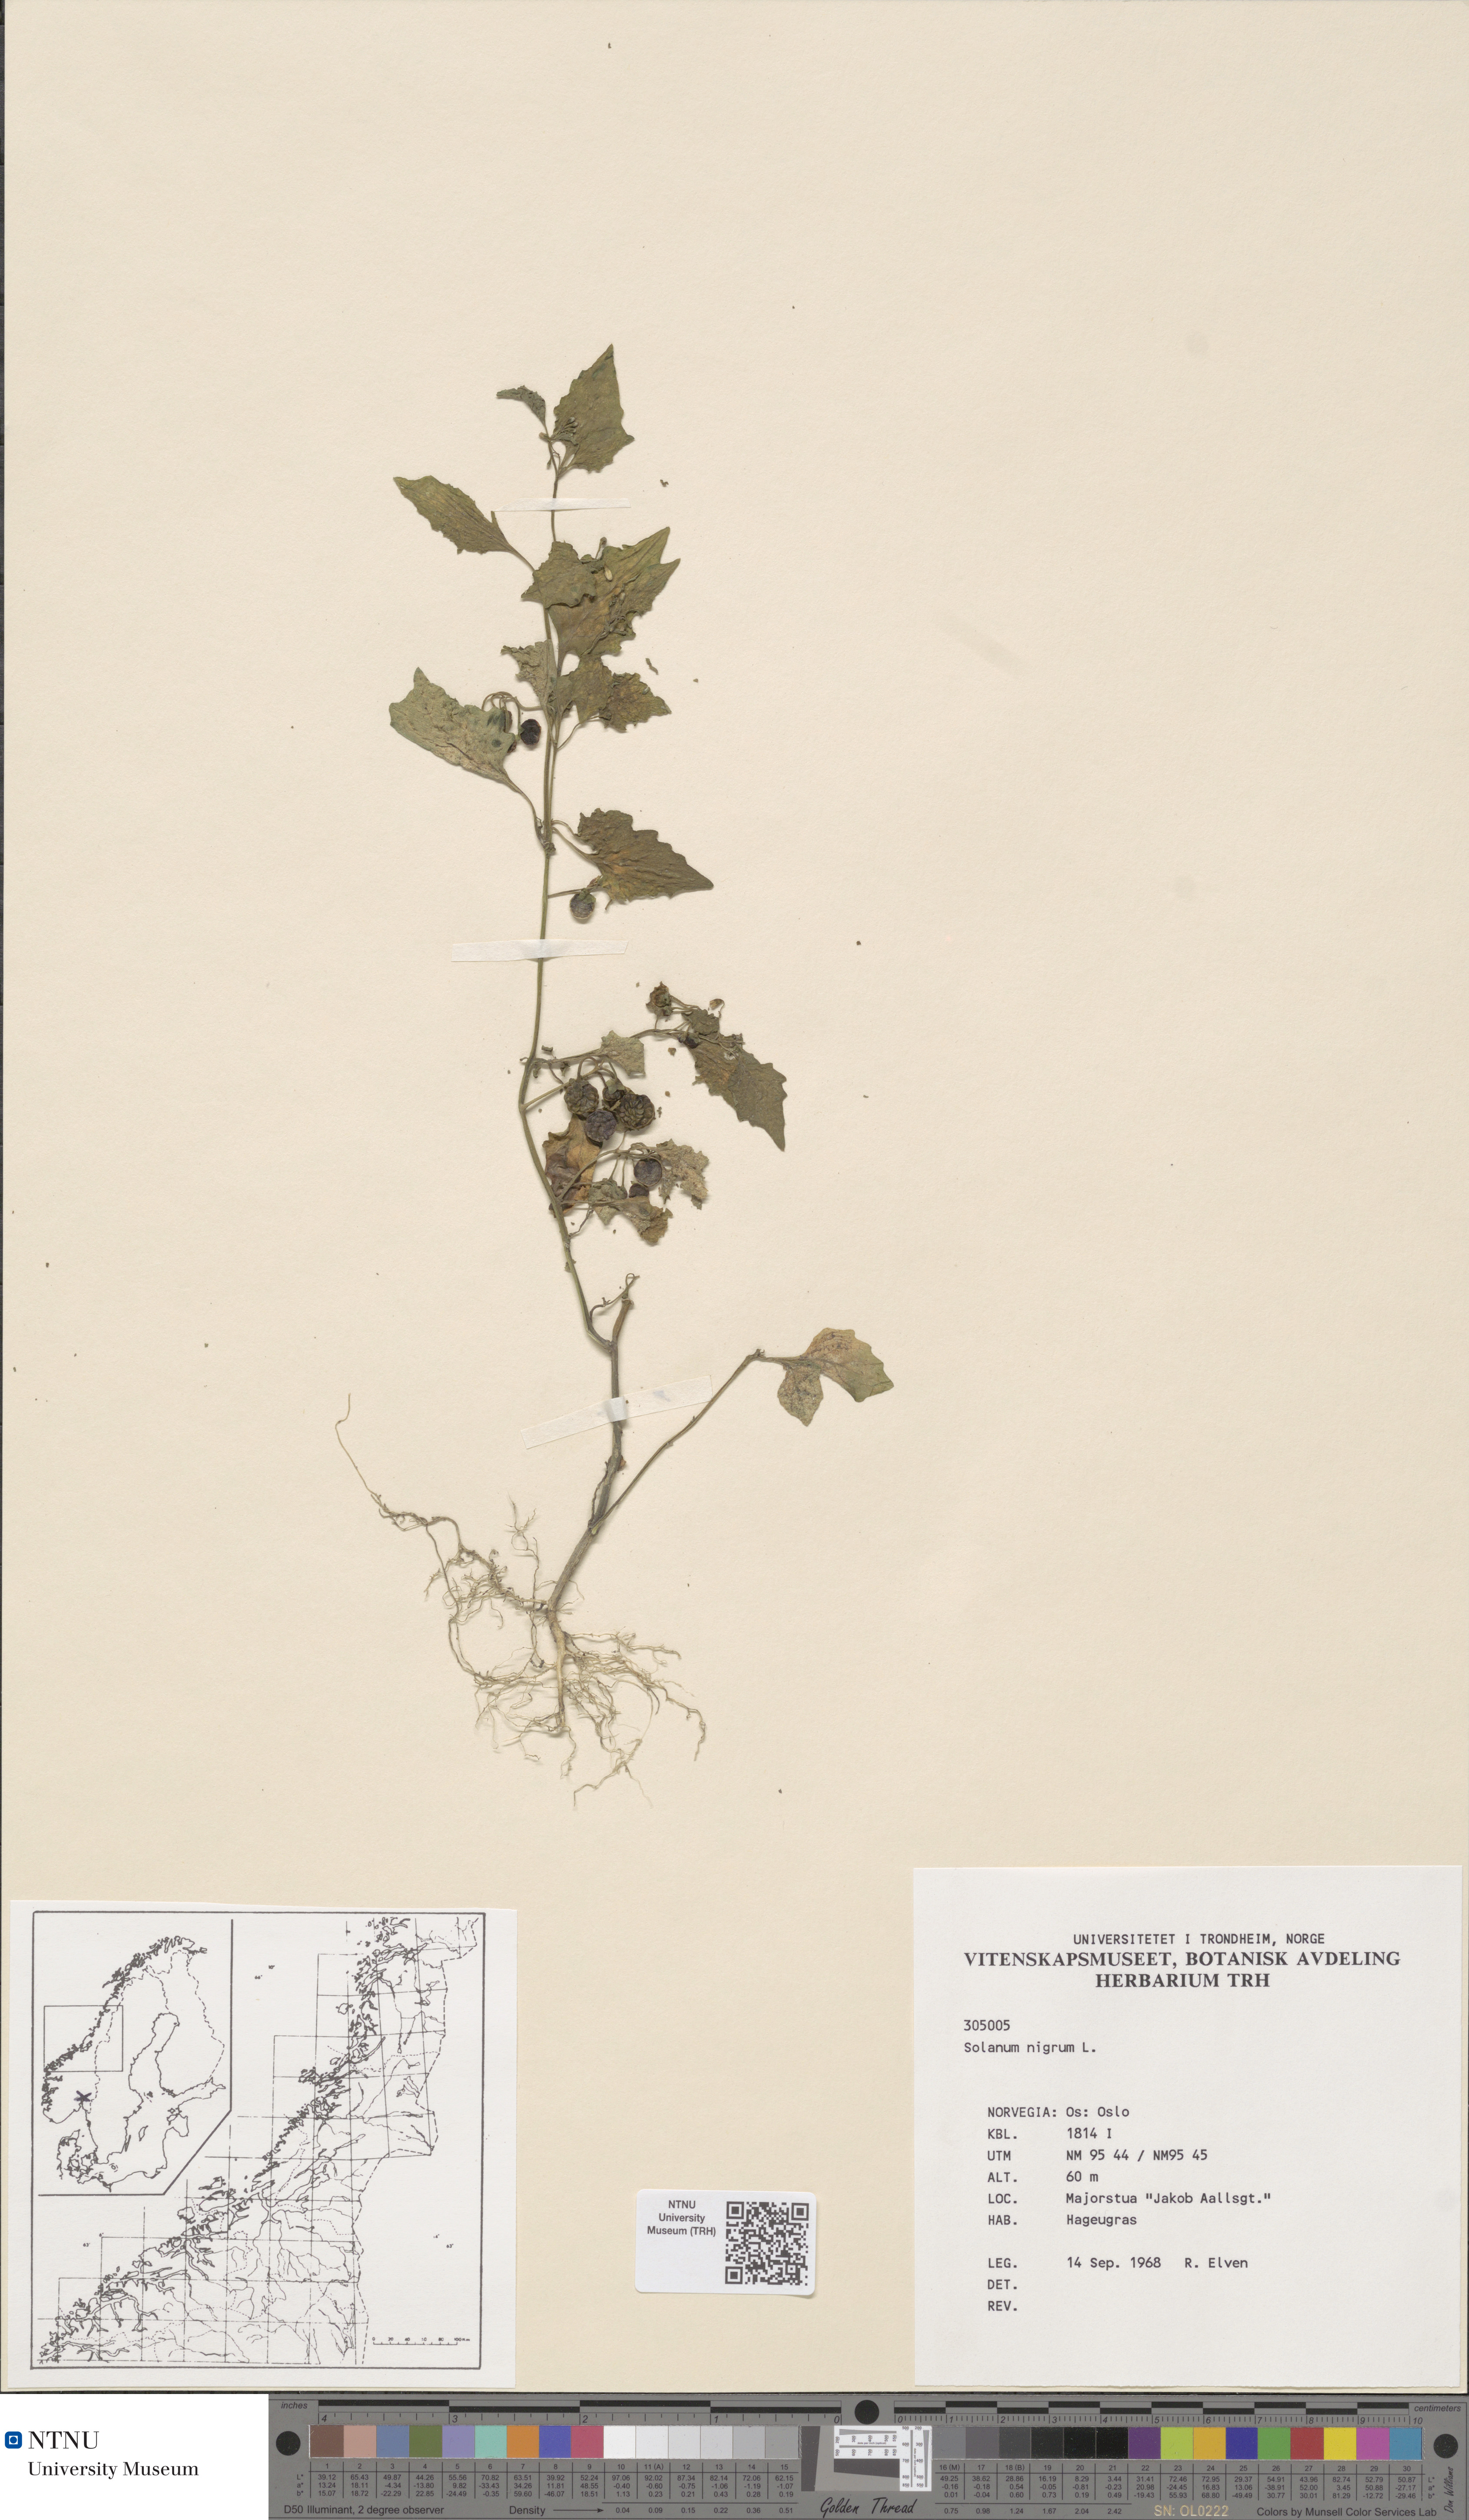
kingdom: Plantae
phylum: Tracheophyta
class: Magnoliopsida
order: Solanales
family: Solanaceae
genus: Solanum
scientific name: Solanum nigrum
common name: Black nightshade
